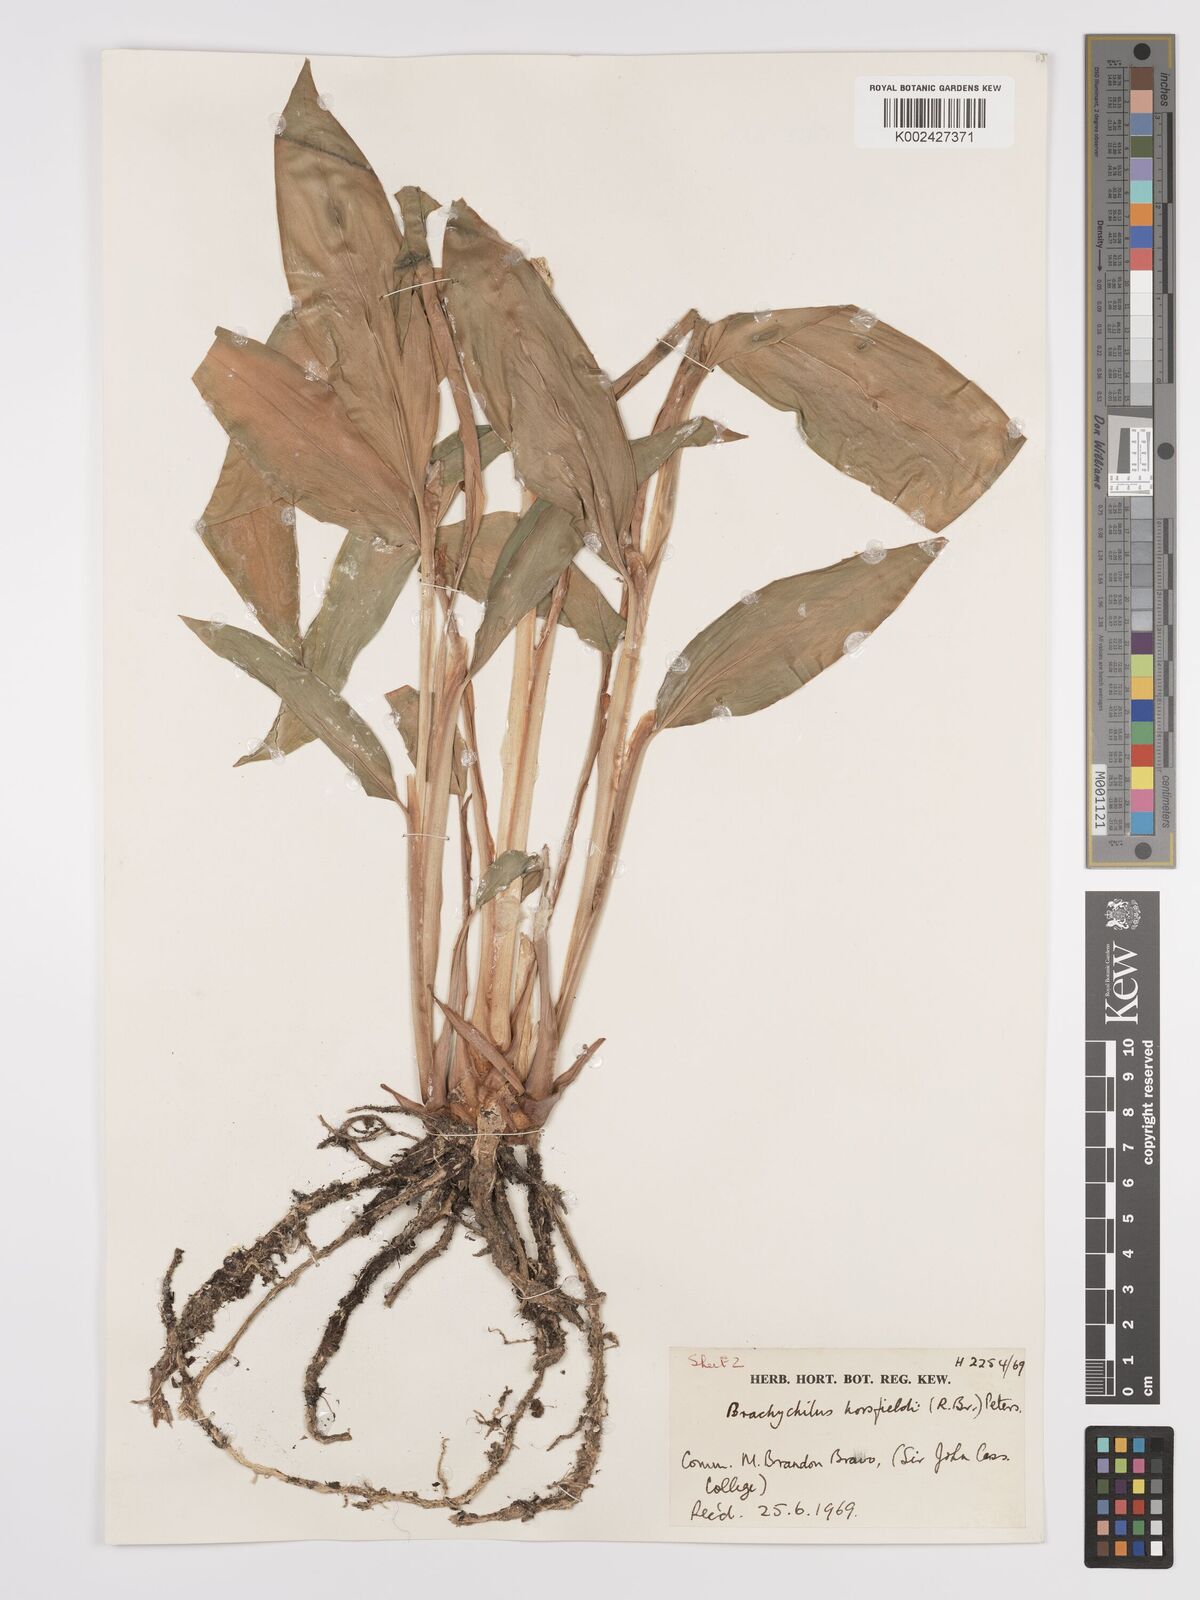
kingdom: Plantae
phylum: Tracheophyta
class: Liliopsida
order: Zingiberales
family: Zingiberaceae
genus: Hedychium
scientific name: Hedychium horsfieldii
